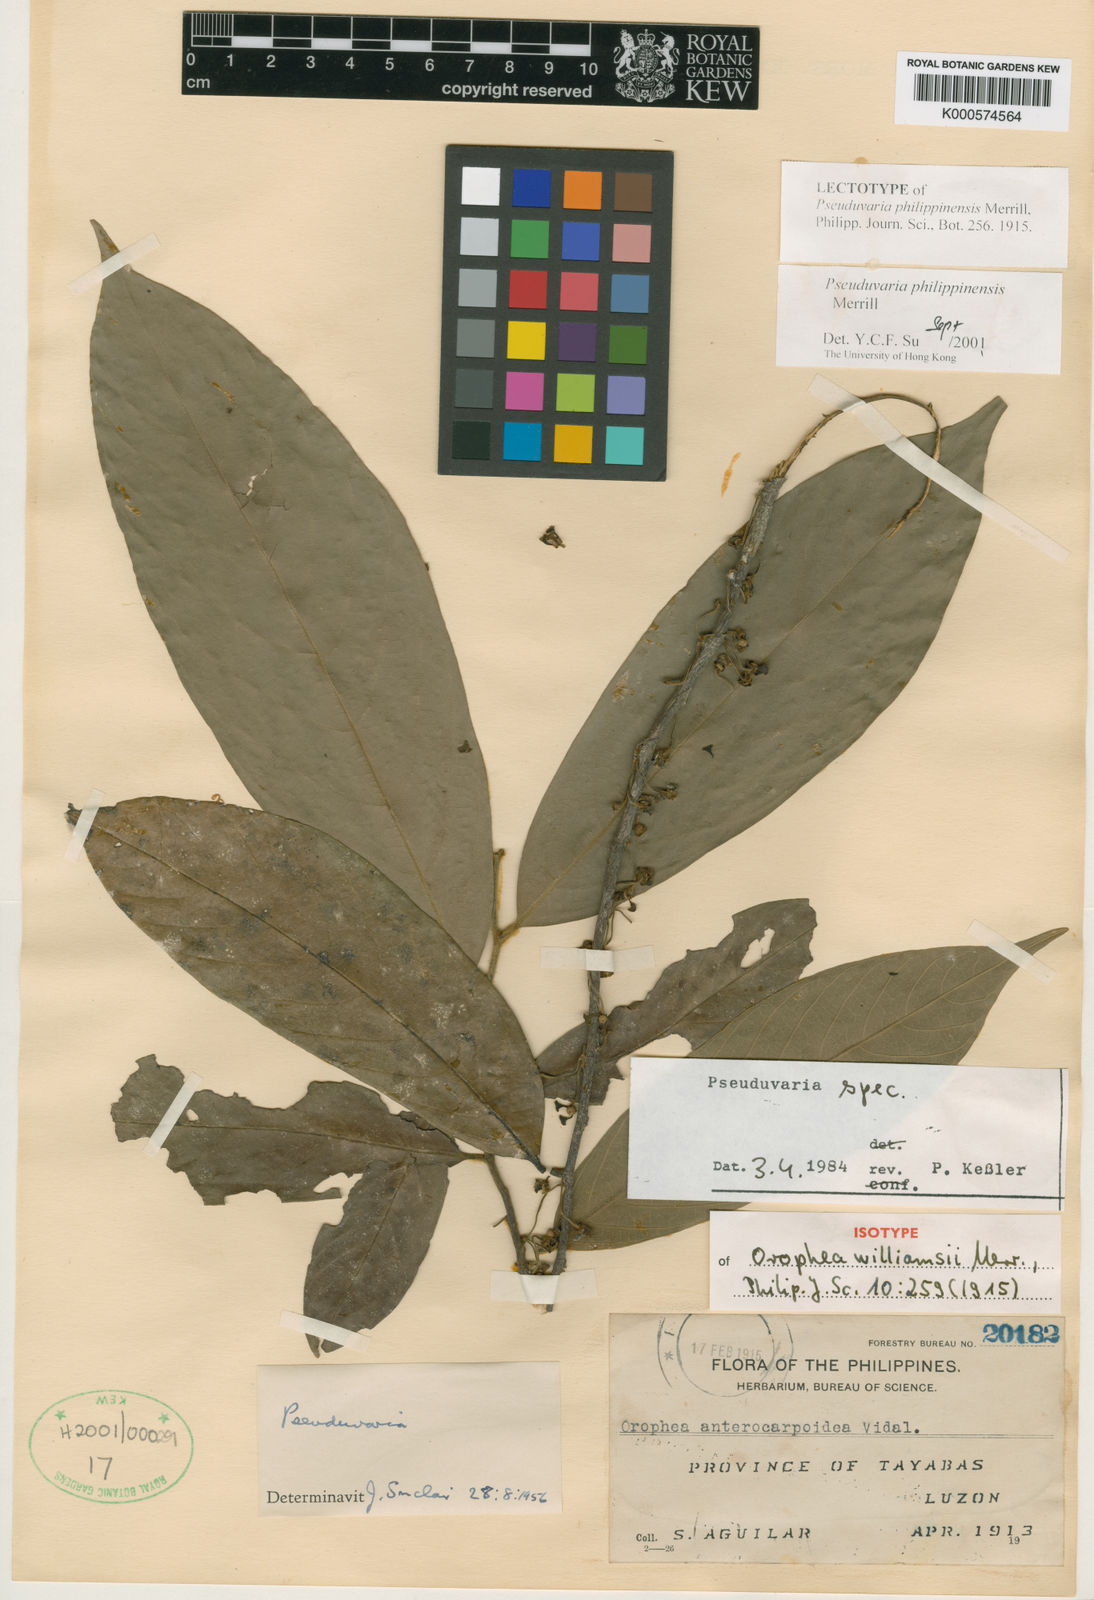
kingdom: Plantae
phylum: Tracheophyta
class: Magnoliopsida
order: Magnoliales
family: Annonaceae
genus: Pseuduvaria
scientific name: Pseuduvaria philippinensis
